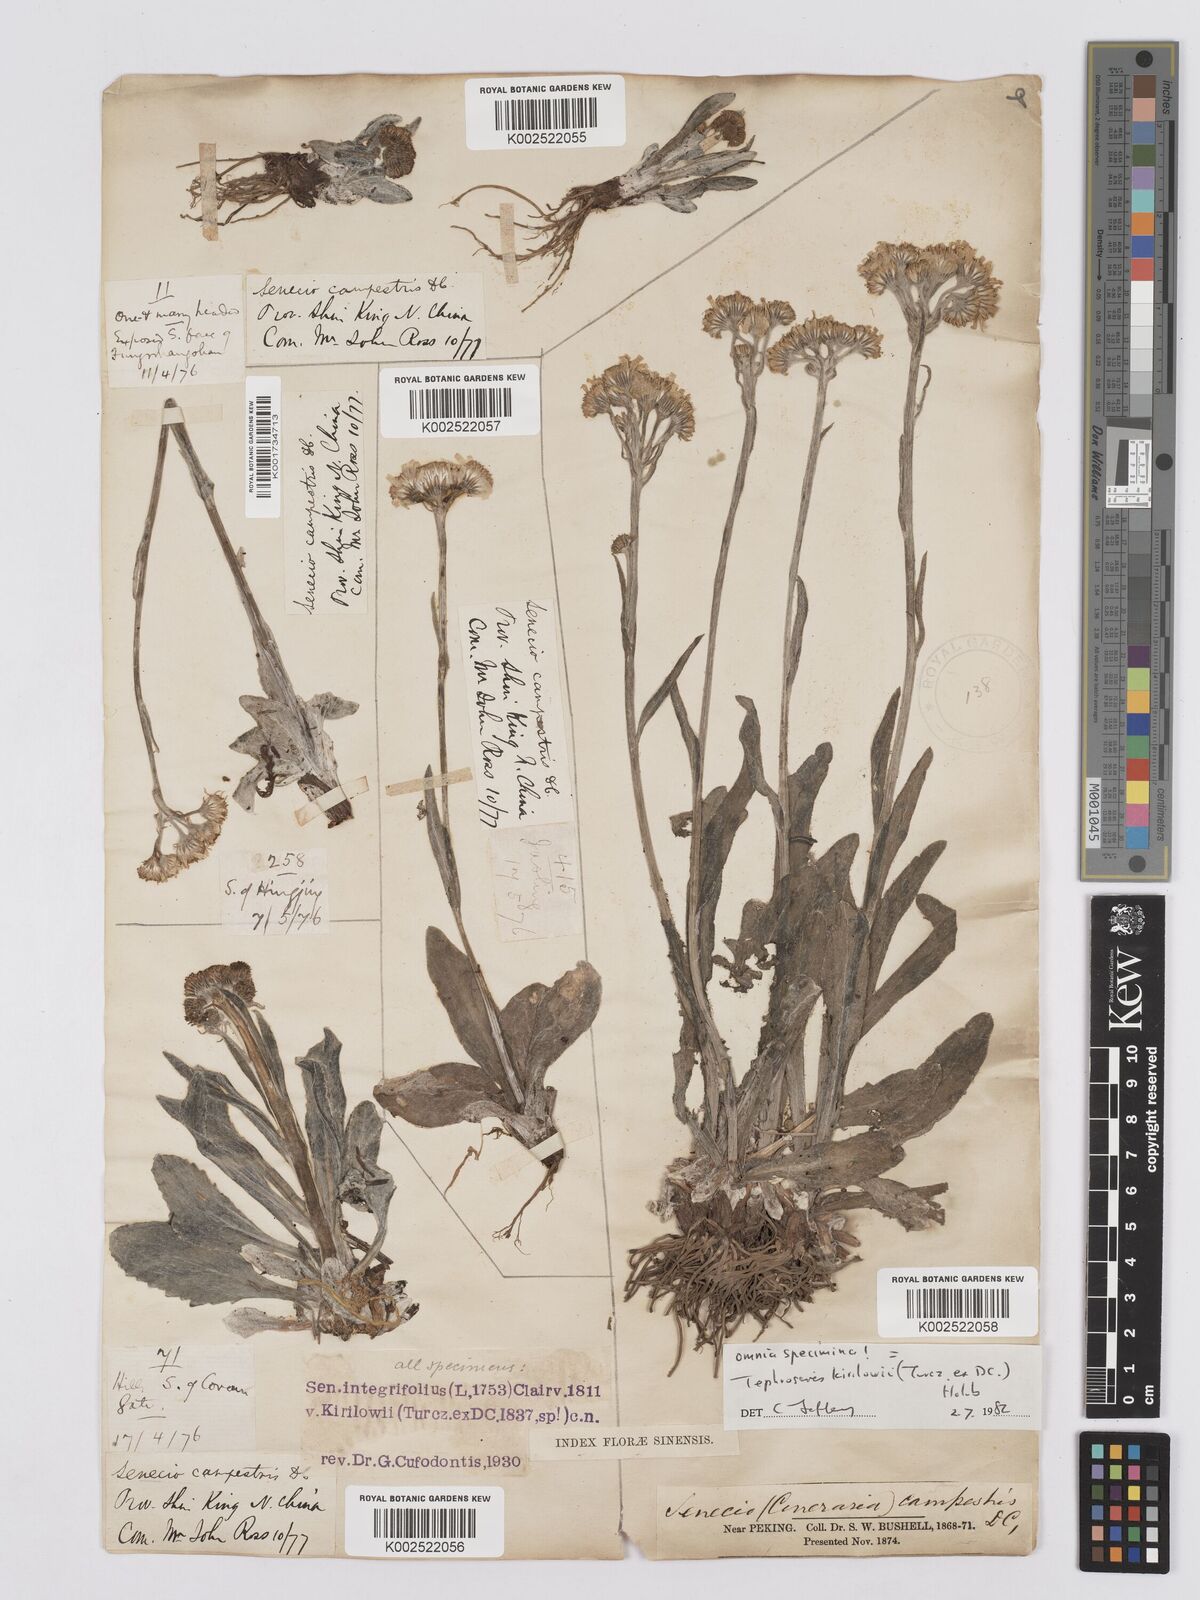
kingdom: Plantae
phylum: Tracheophyta
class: Magnoliopsida
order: Asterales
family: Asteraceae
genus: Tephroseris
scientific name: Tephroseris kirilowii
